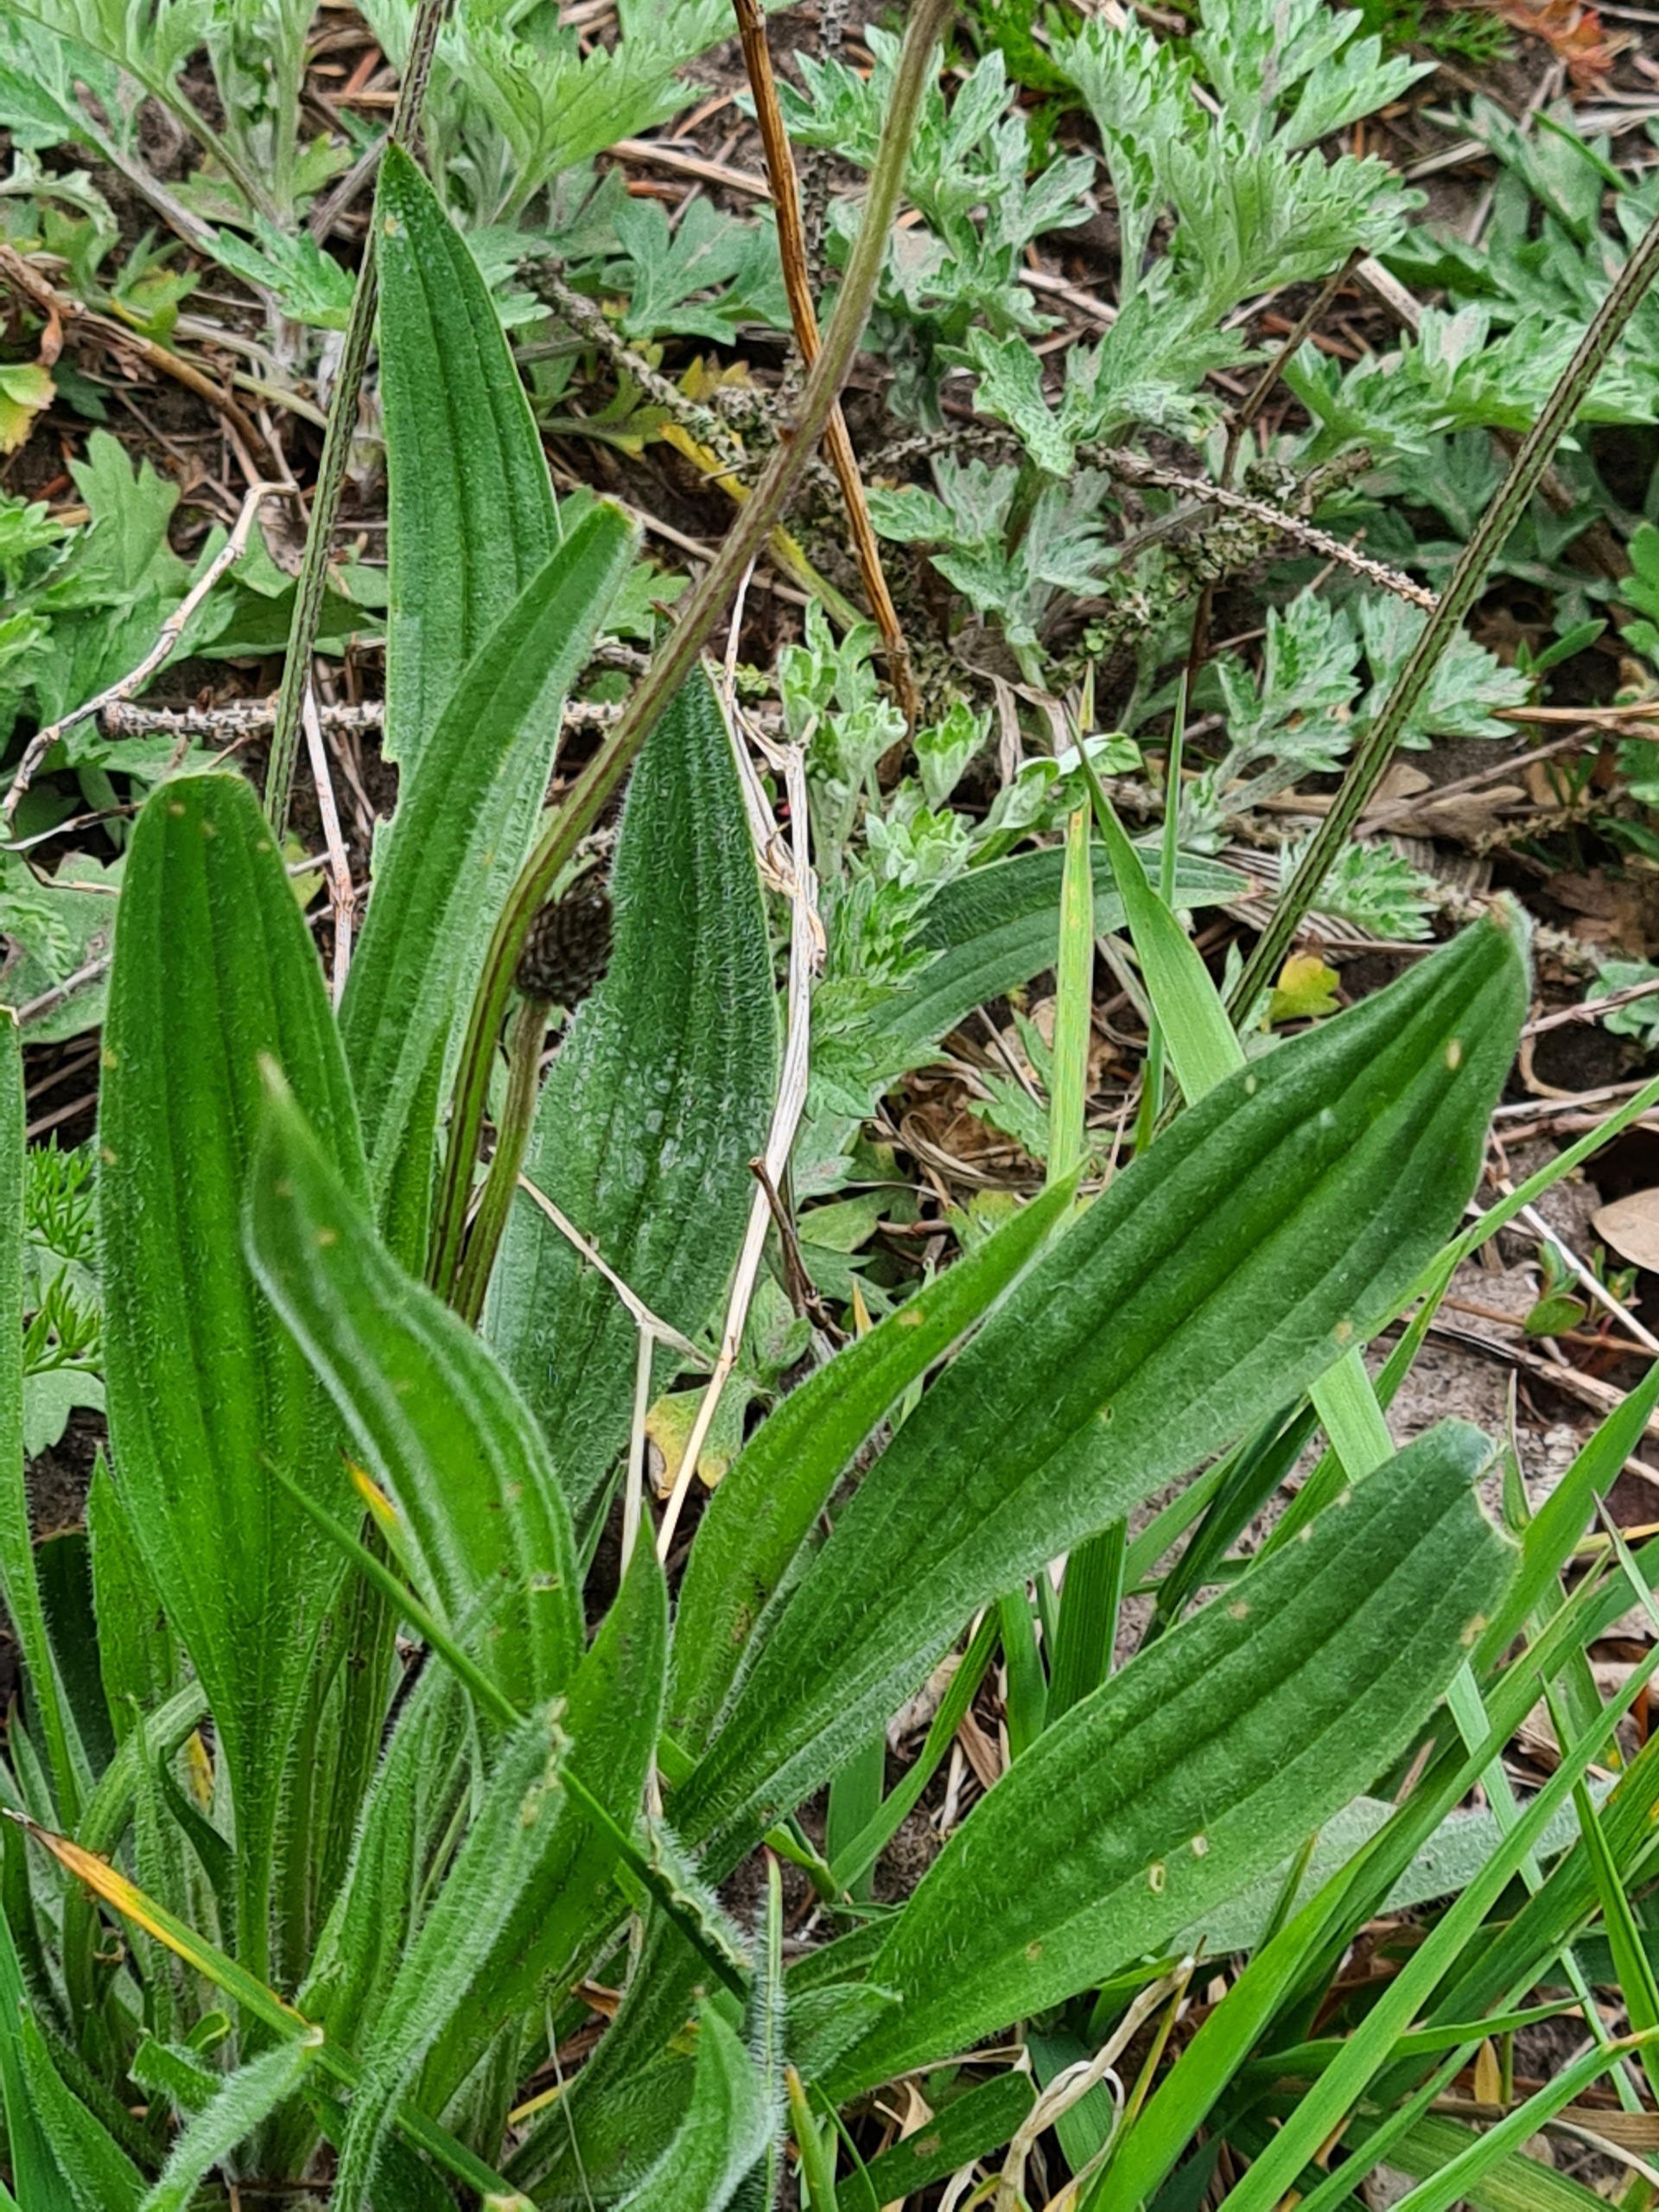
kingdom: Plantae
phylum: Tracheophyta
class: Magnoliopsida
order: Lamiales
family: Plantaginaceae
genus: Plantago
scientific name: Plantago lanceolata
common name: Lancet-vejbred
